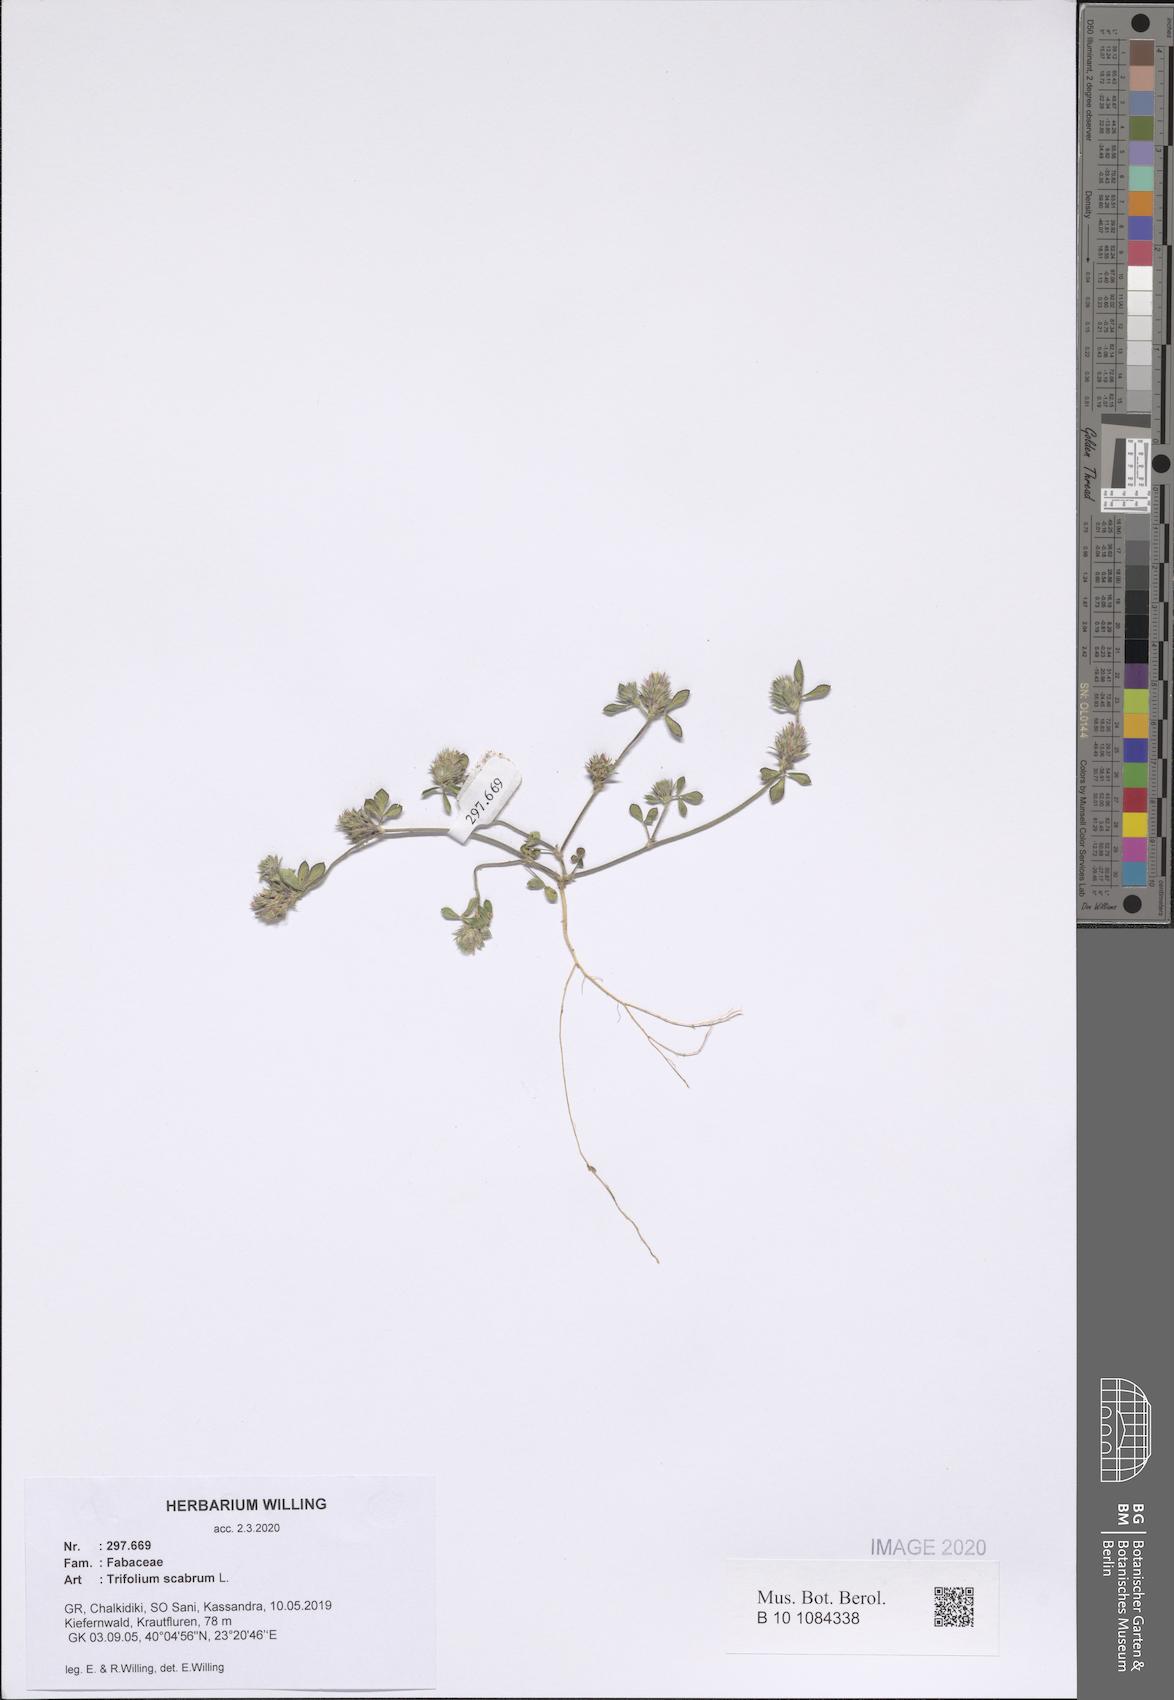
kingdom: Plantae
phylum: Tracheophyta
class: Magnoliopsida
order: Fabales
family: Fabaceae
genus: Trifolium
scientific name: Trifolium scabrum
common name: Rough clover
